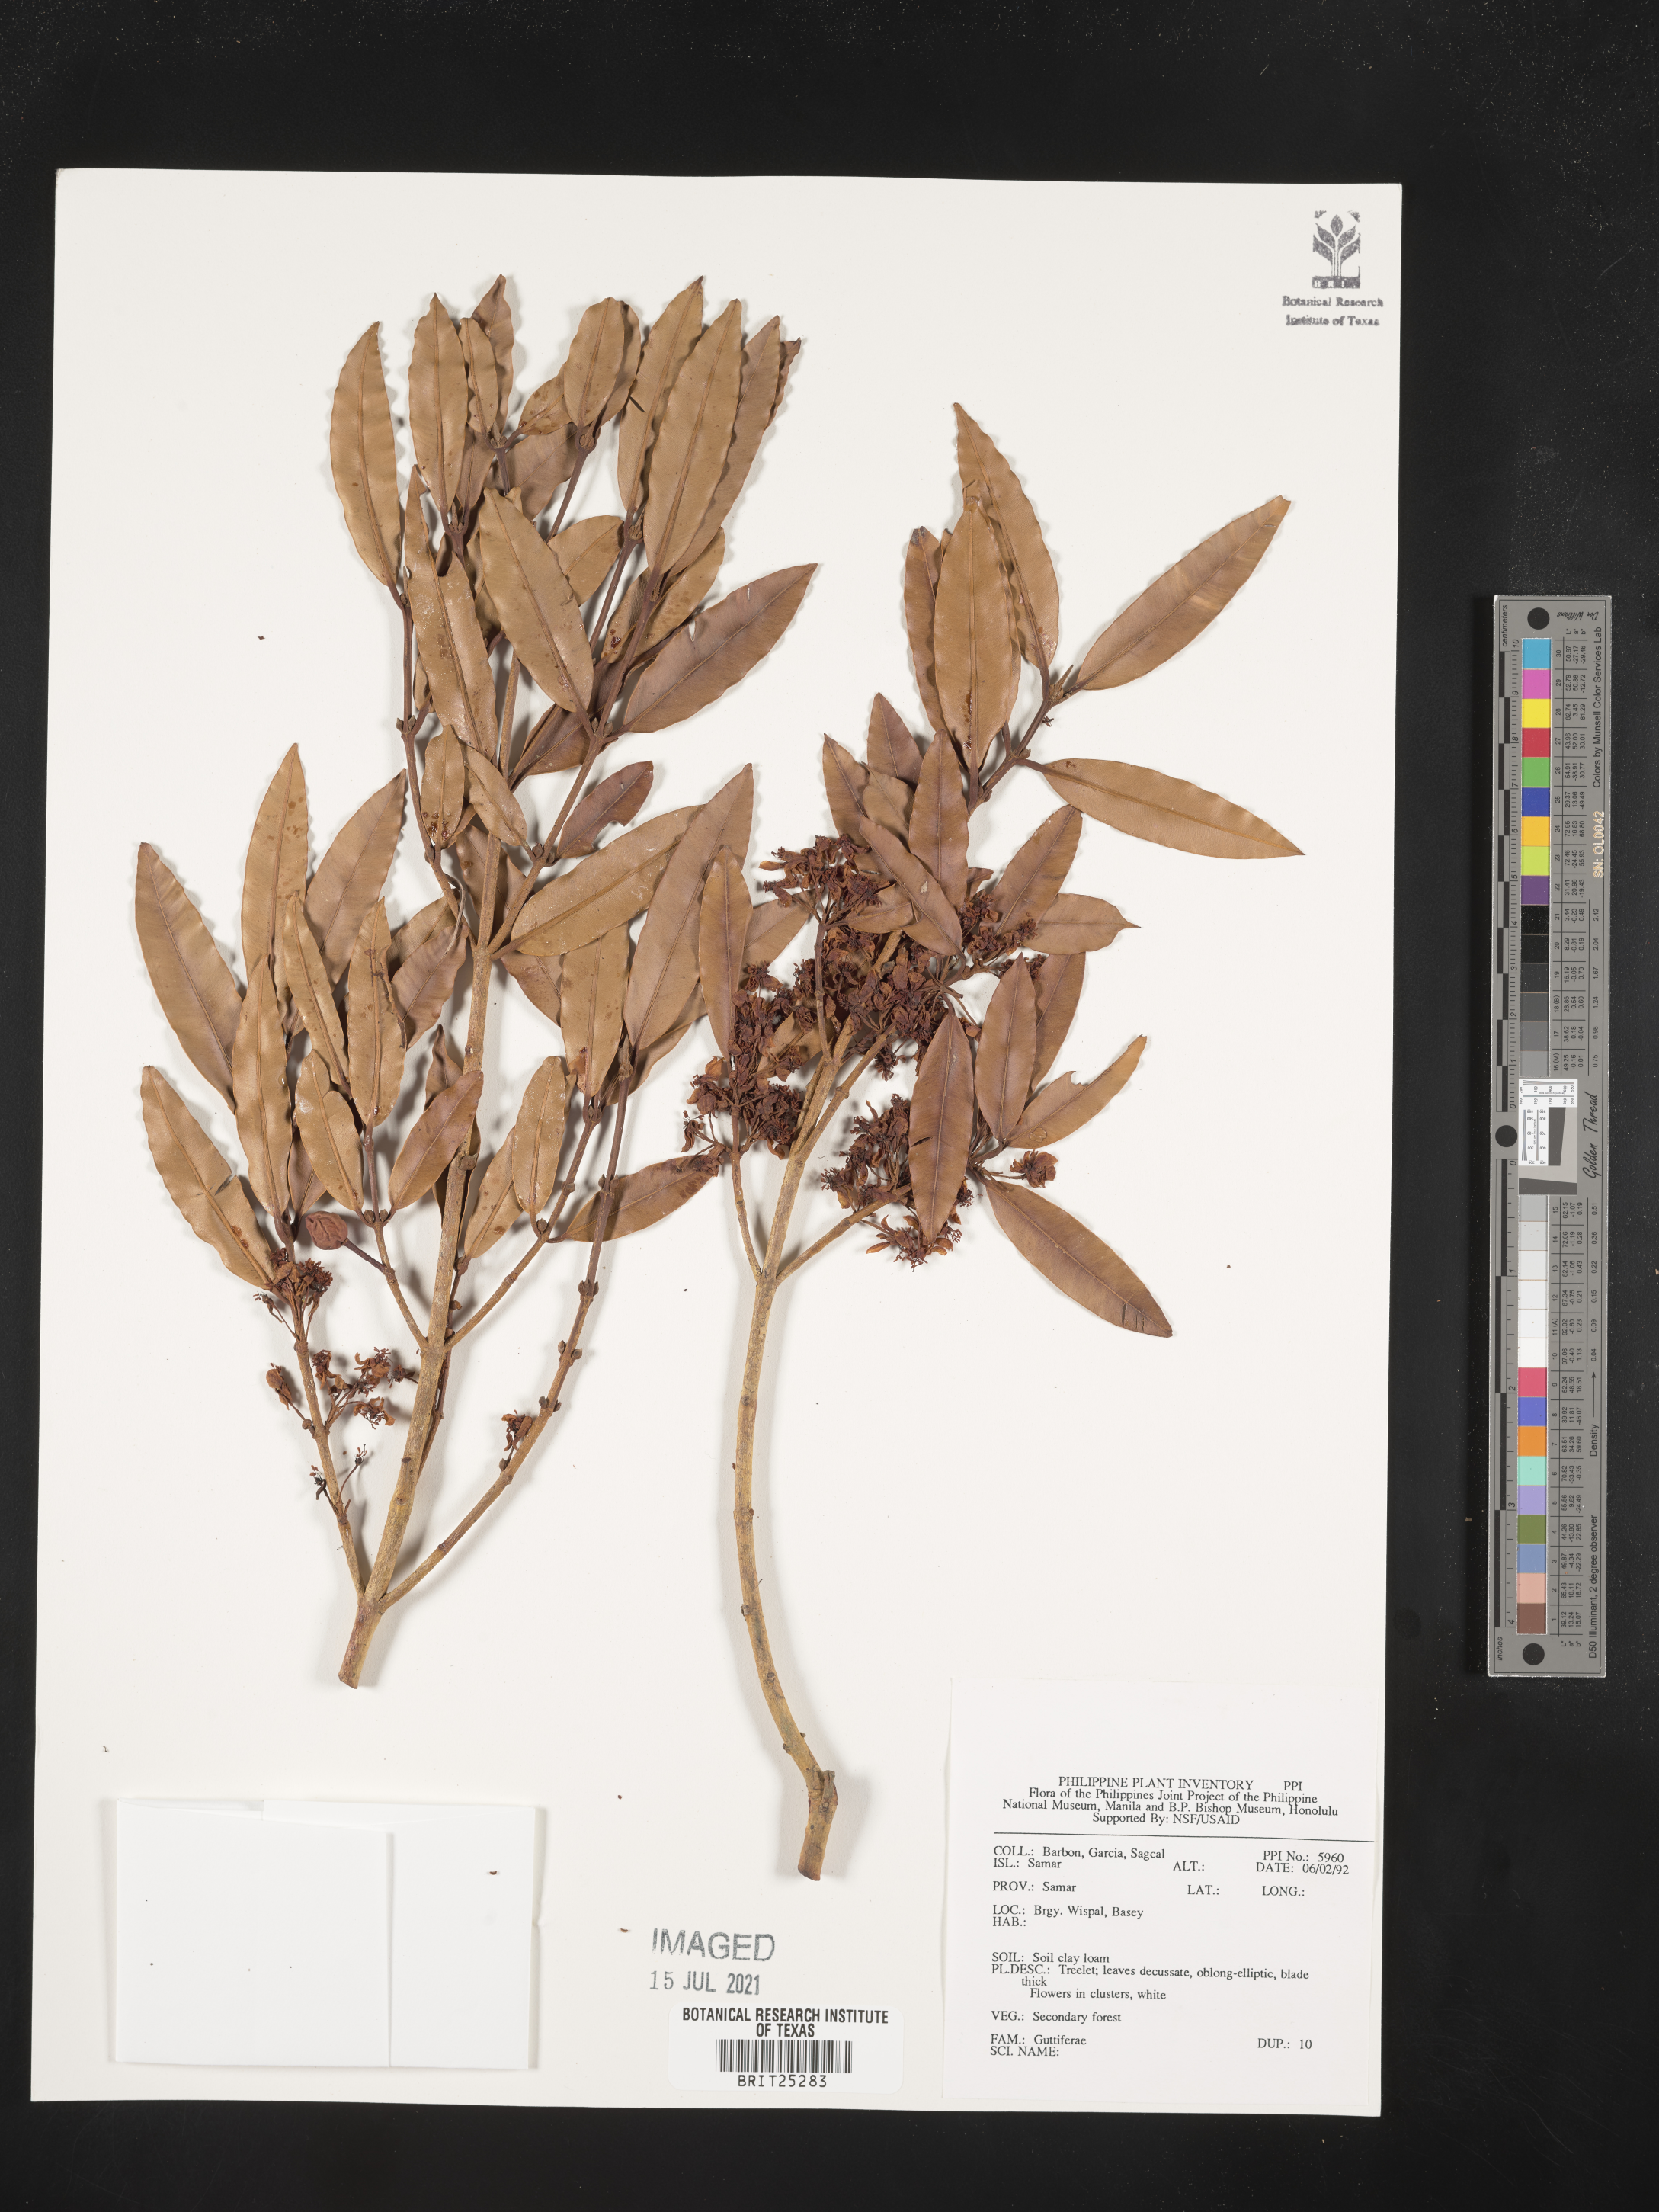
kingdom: Plantae
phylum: Tracheophyta
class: Magnoliopsida
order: Malpighiales
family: Hypericaceae
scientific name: Hypericaceae
